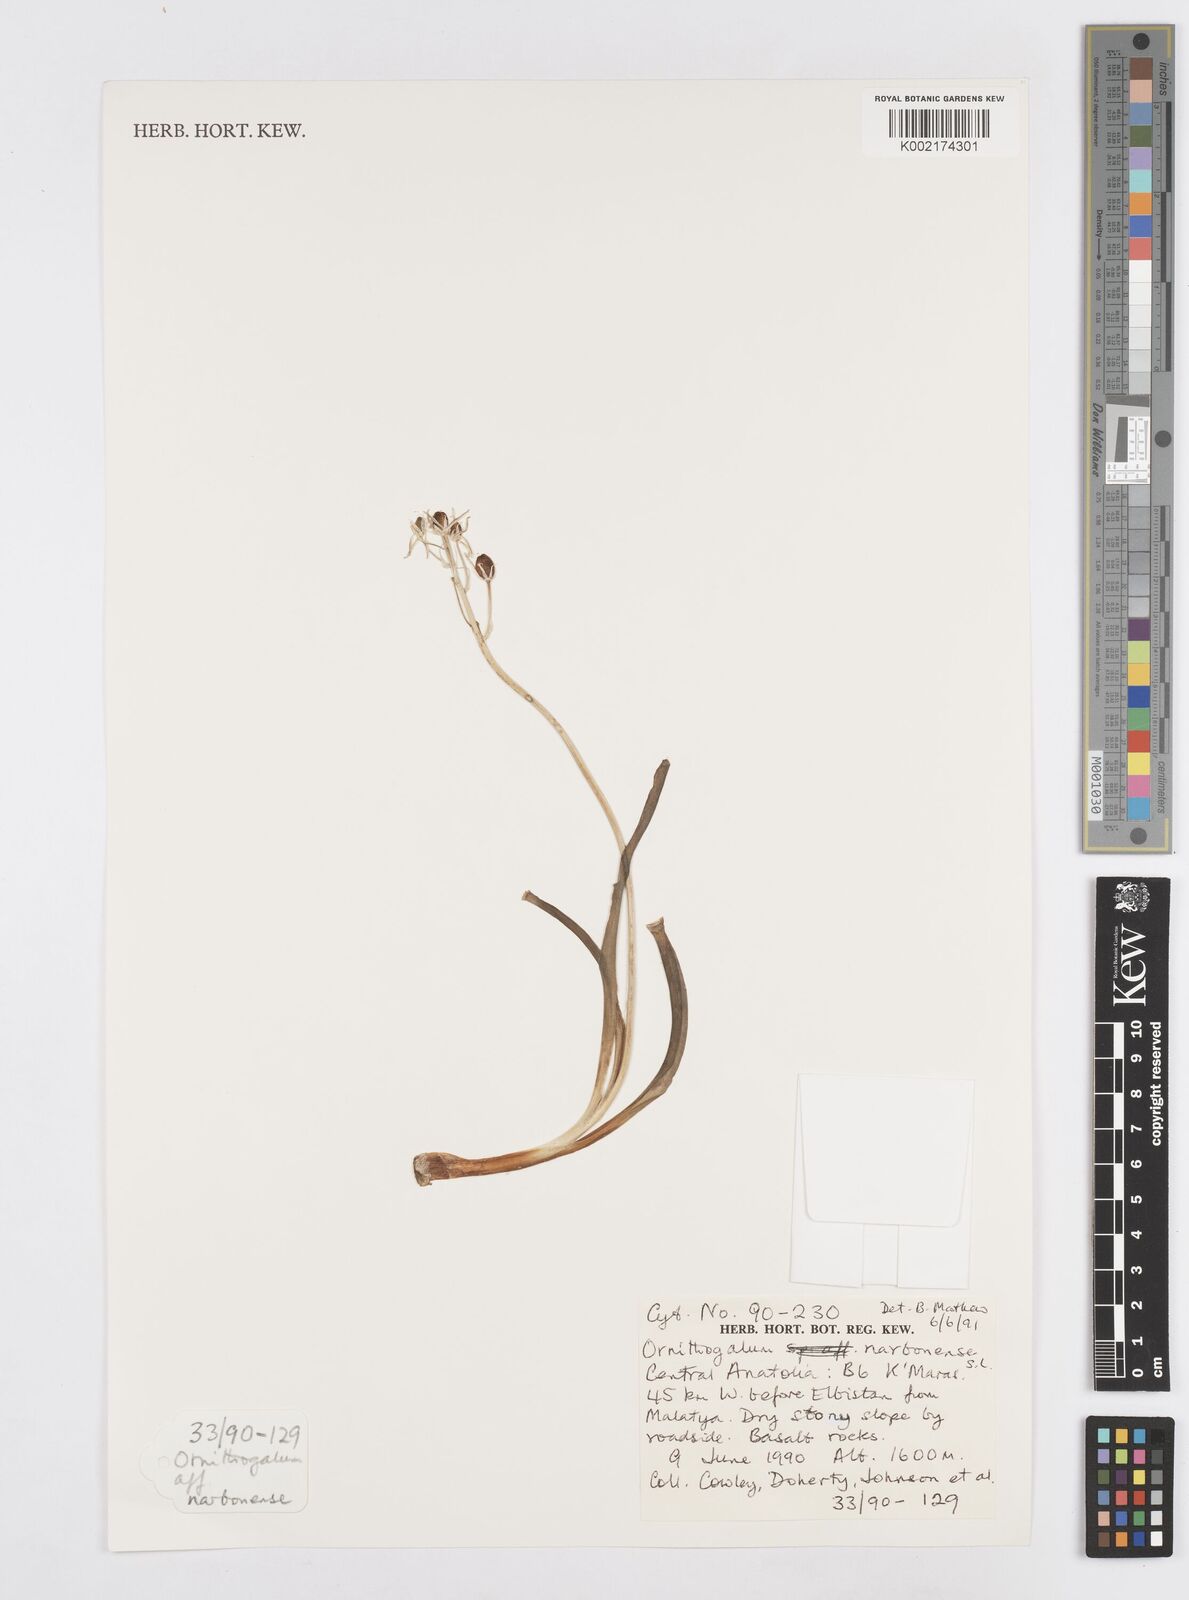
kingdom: Plantae
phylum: Tracheophyta
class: Liliopsida
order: Asparagales
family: Asparagaceae
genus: Ornithogalum
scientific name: Ornithogalum narbonense
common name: Bath-asparagus
